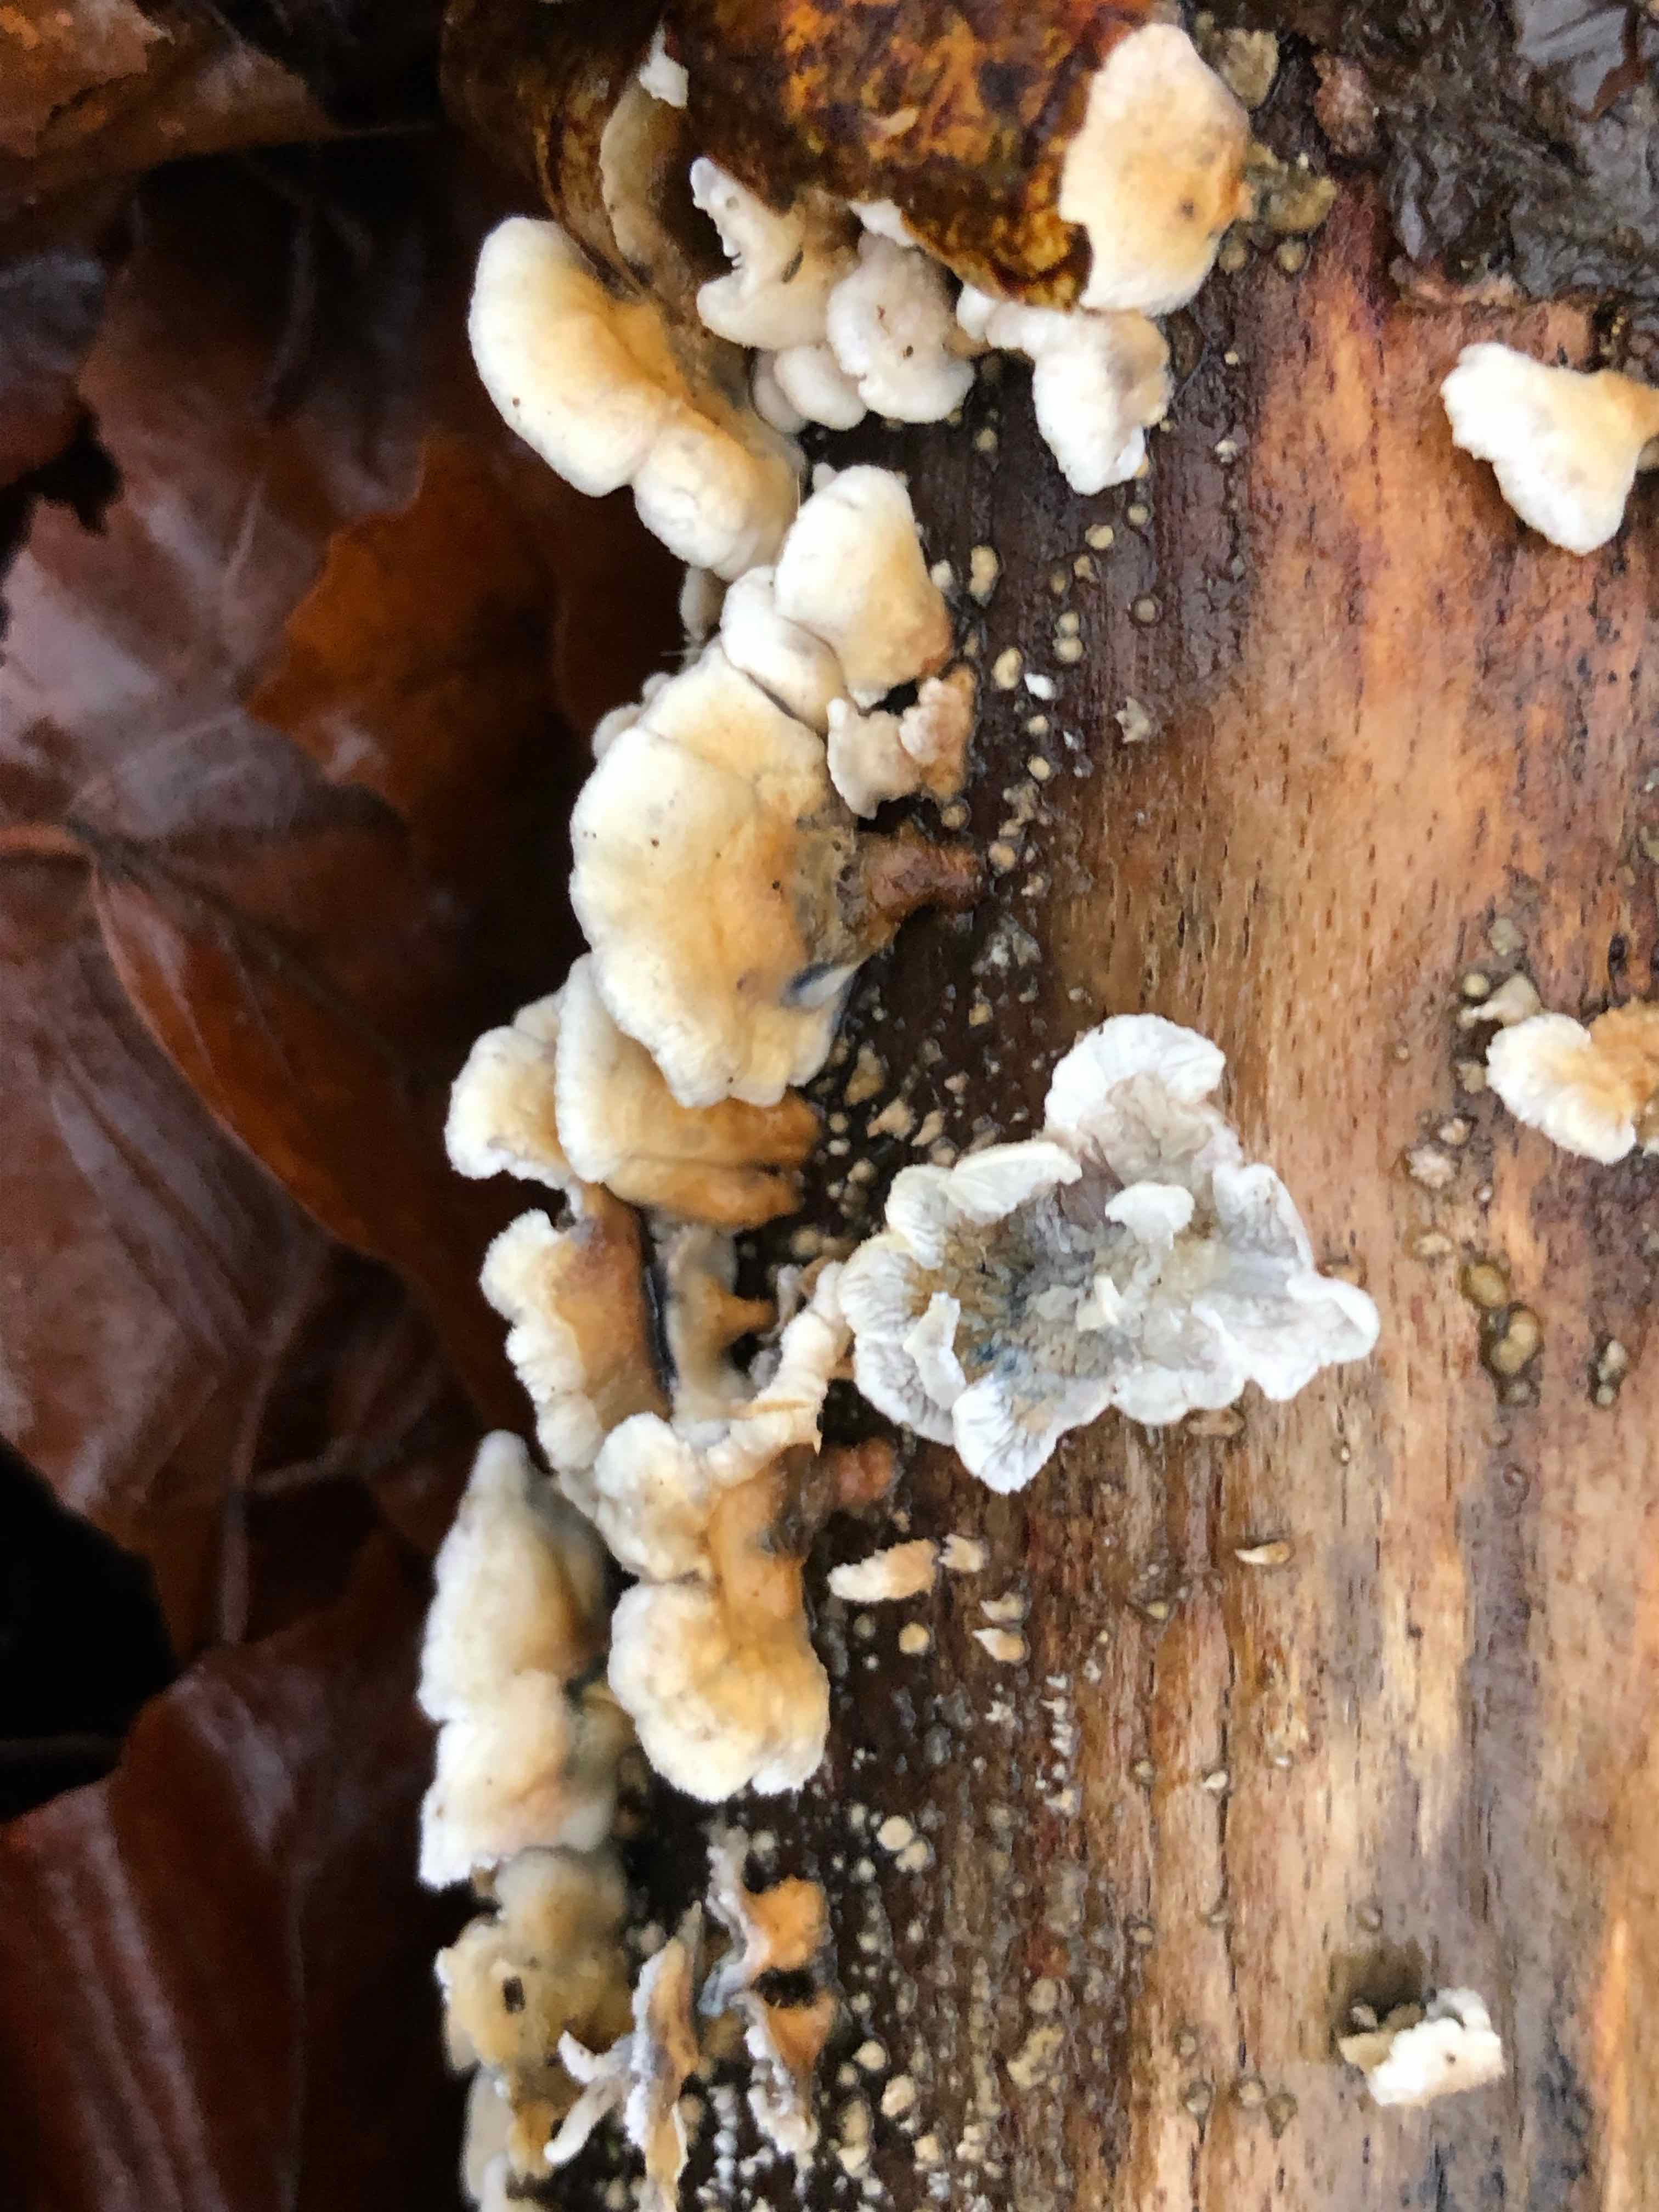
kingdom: Fungi
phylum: Basidiomycota
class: Agaricomycetes
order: Amylocorticiales
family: Amylocorticiaceae
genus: Plicaturopsis
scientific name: Plicaturopsis crispa
